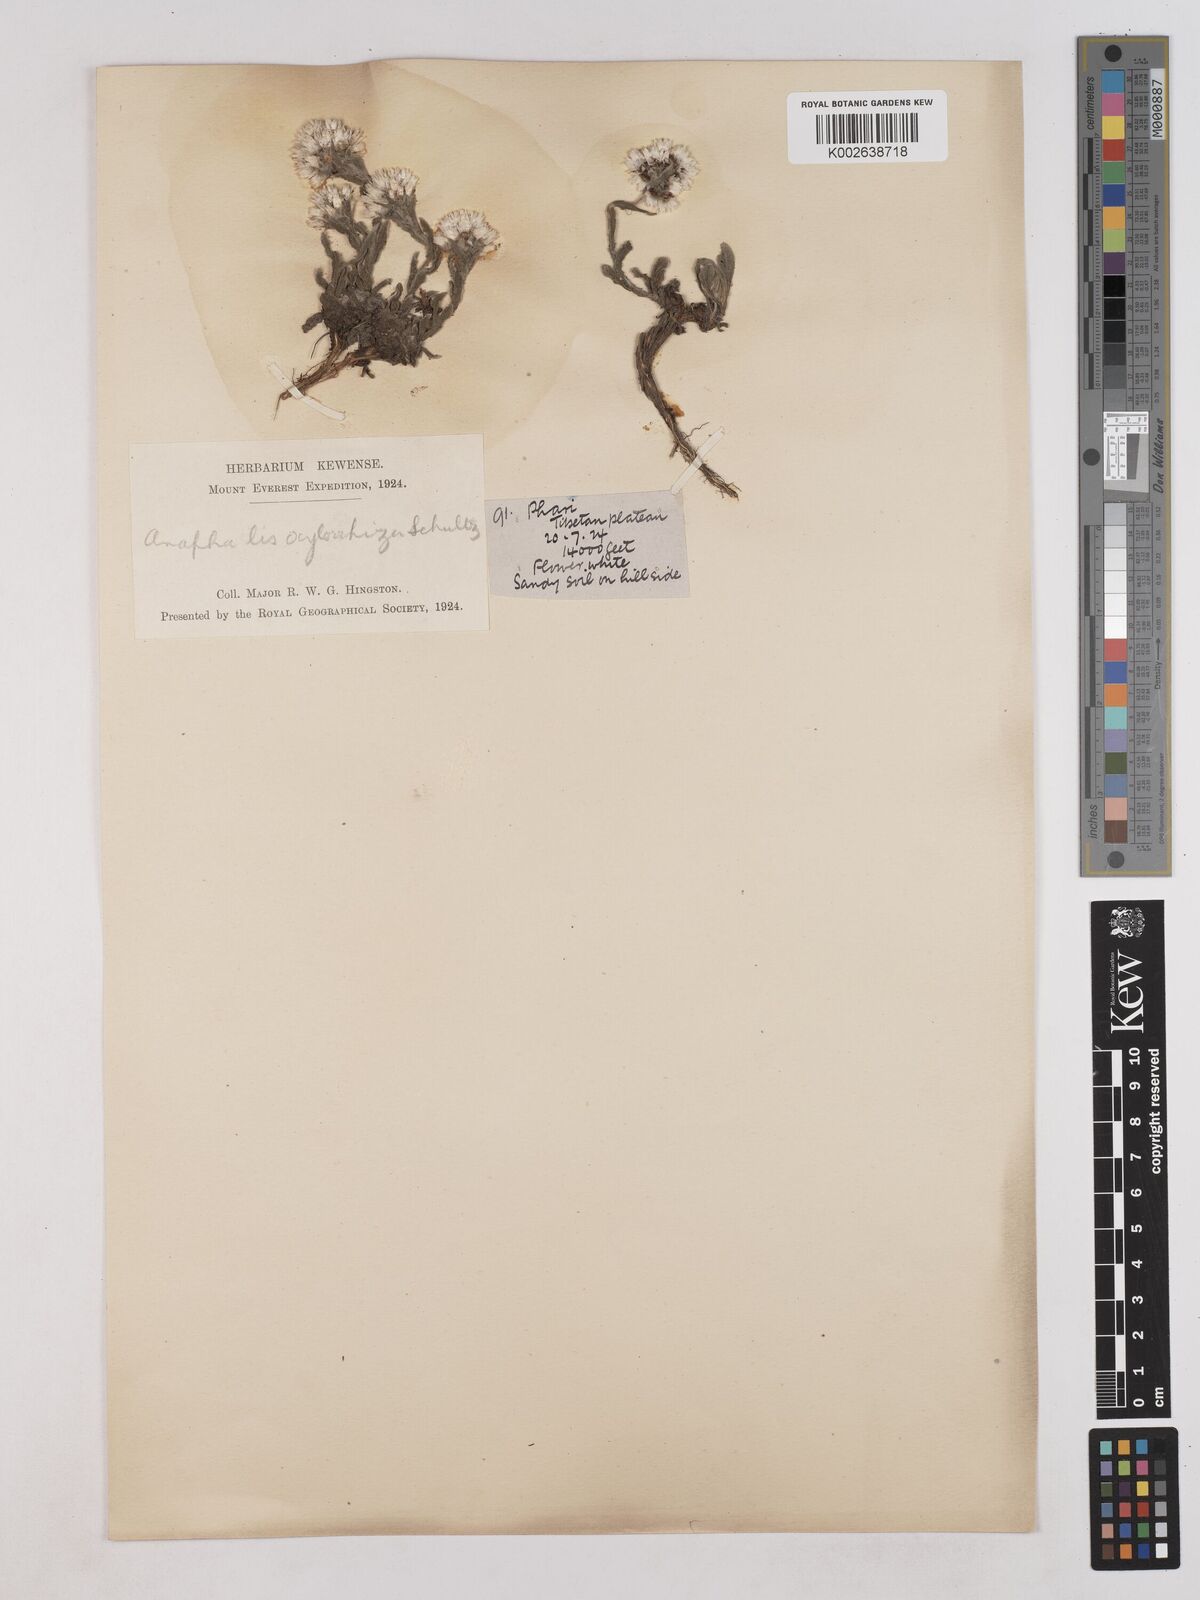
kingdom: Plantae
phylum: Tracheophyta
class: Magnoliopsida
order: Asterales
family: Asteraceae
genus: Anaphalis
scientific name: Anaphalis xylorhiza
